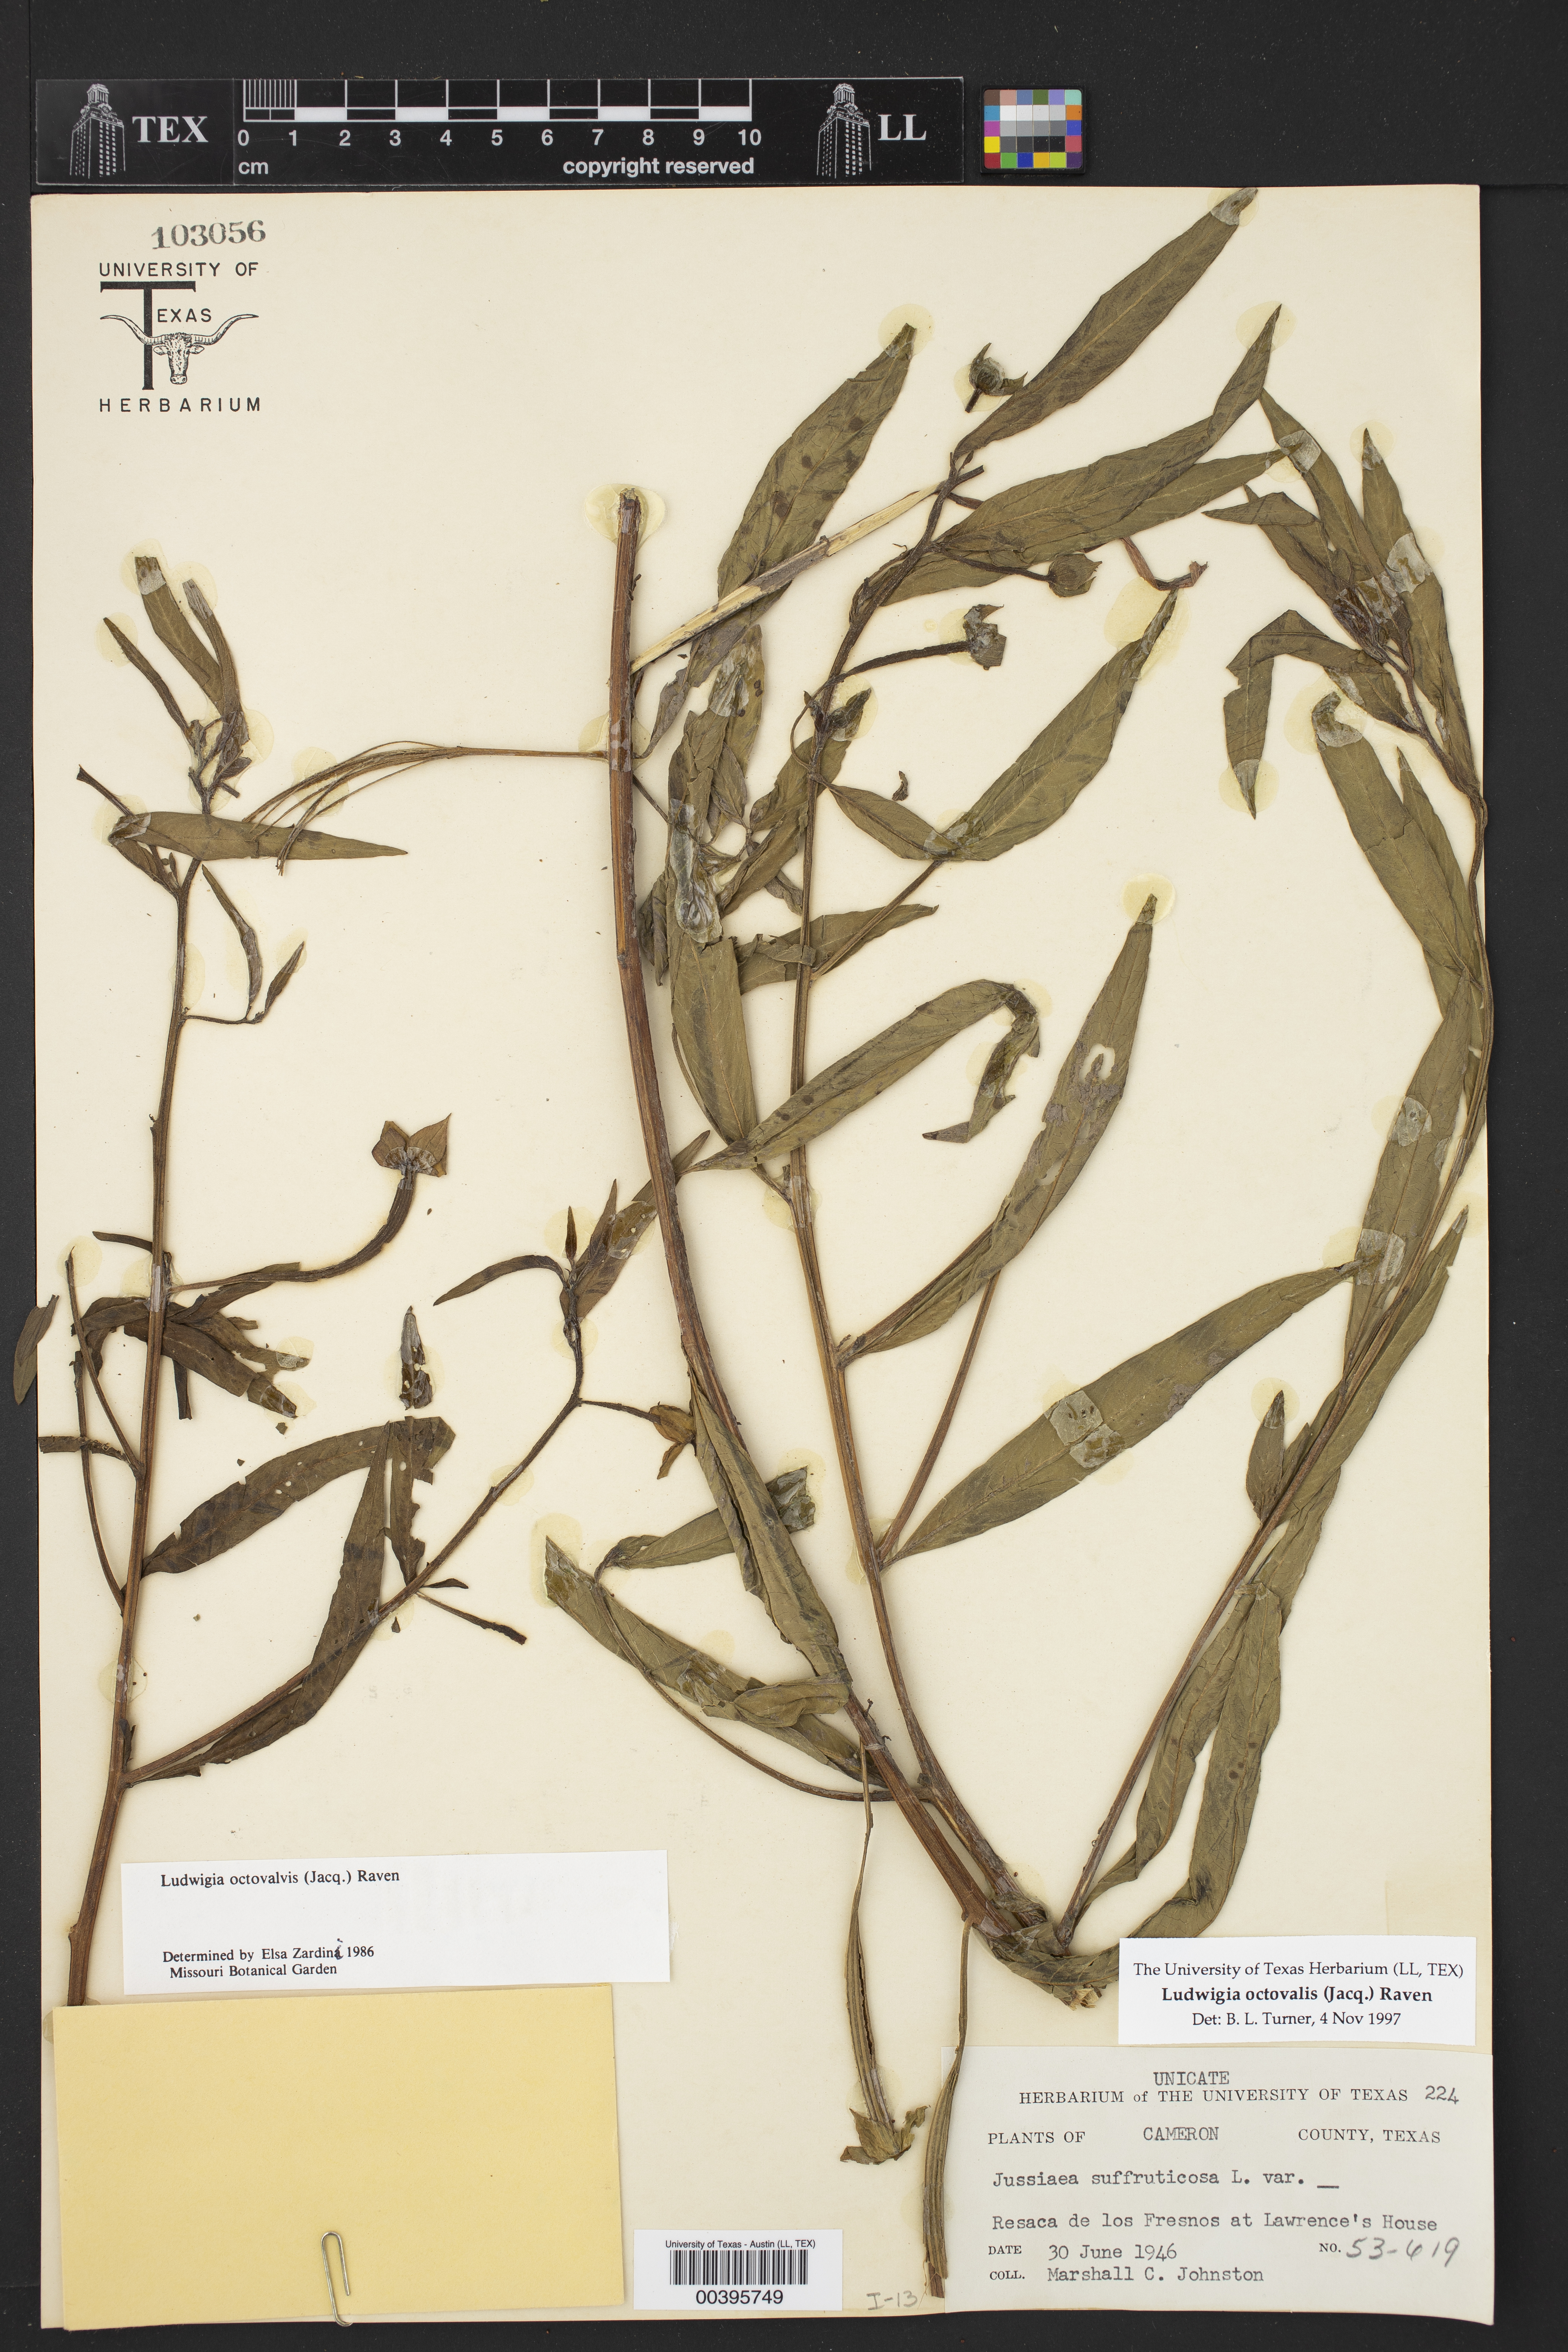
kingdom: Plantae
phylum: Tracheophyta
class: Magnoliopsida
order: Myrtales
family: Onagraceae
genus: Ludwigia
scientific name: Ludwigia octovalvis
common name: Water-primrose
